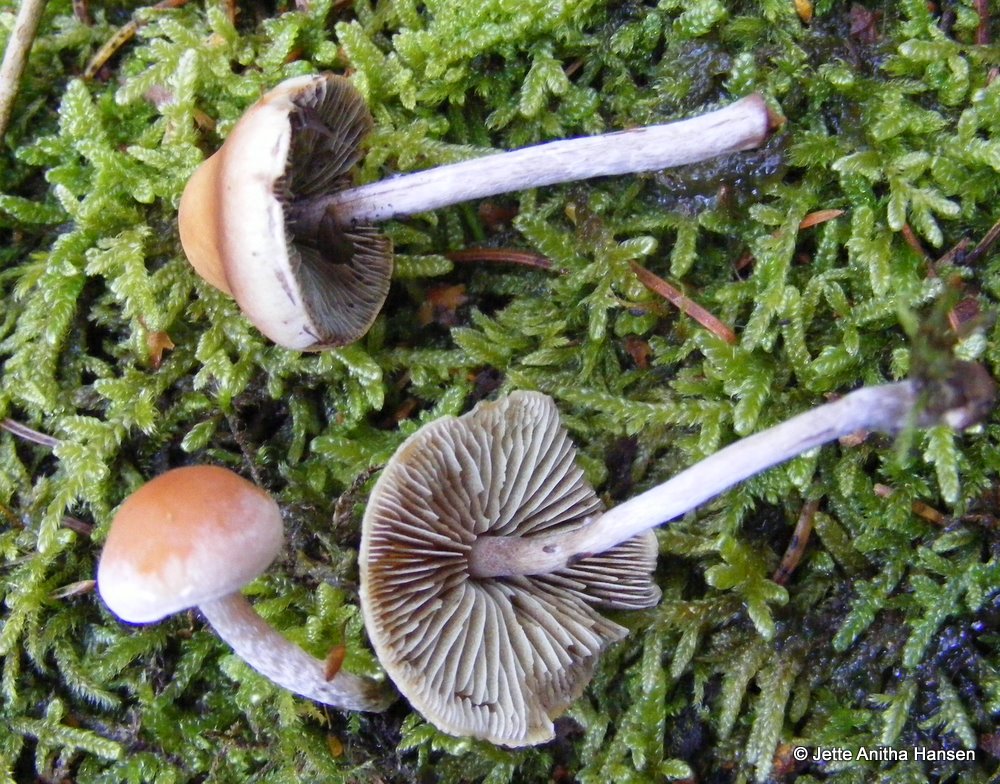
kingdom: Fungi
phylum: Basidiomycota
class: Agaricomycetes
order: Agaricales
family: Strophariaceae
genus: Hypholoma
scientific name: Hypholoma marginatum
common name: enlig svovlhat
